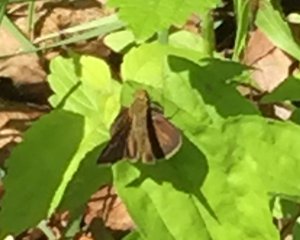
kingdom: Animalia
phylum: Arthropoda
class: Insecta
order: Lepidoptera
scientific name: Lepidoptera
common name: Butterflies
